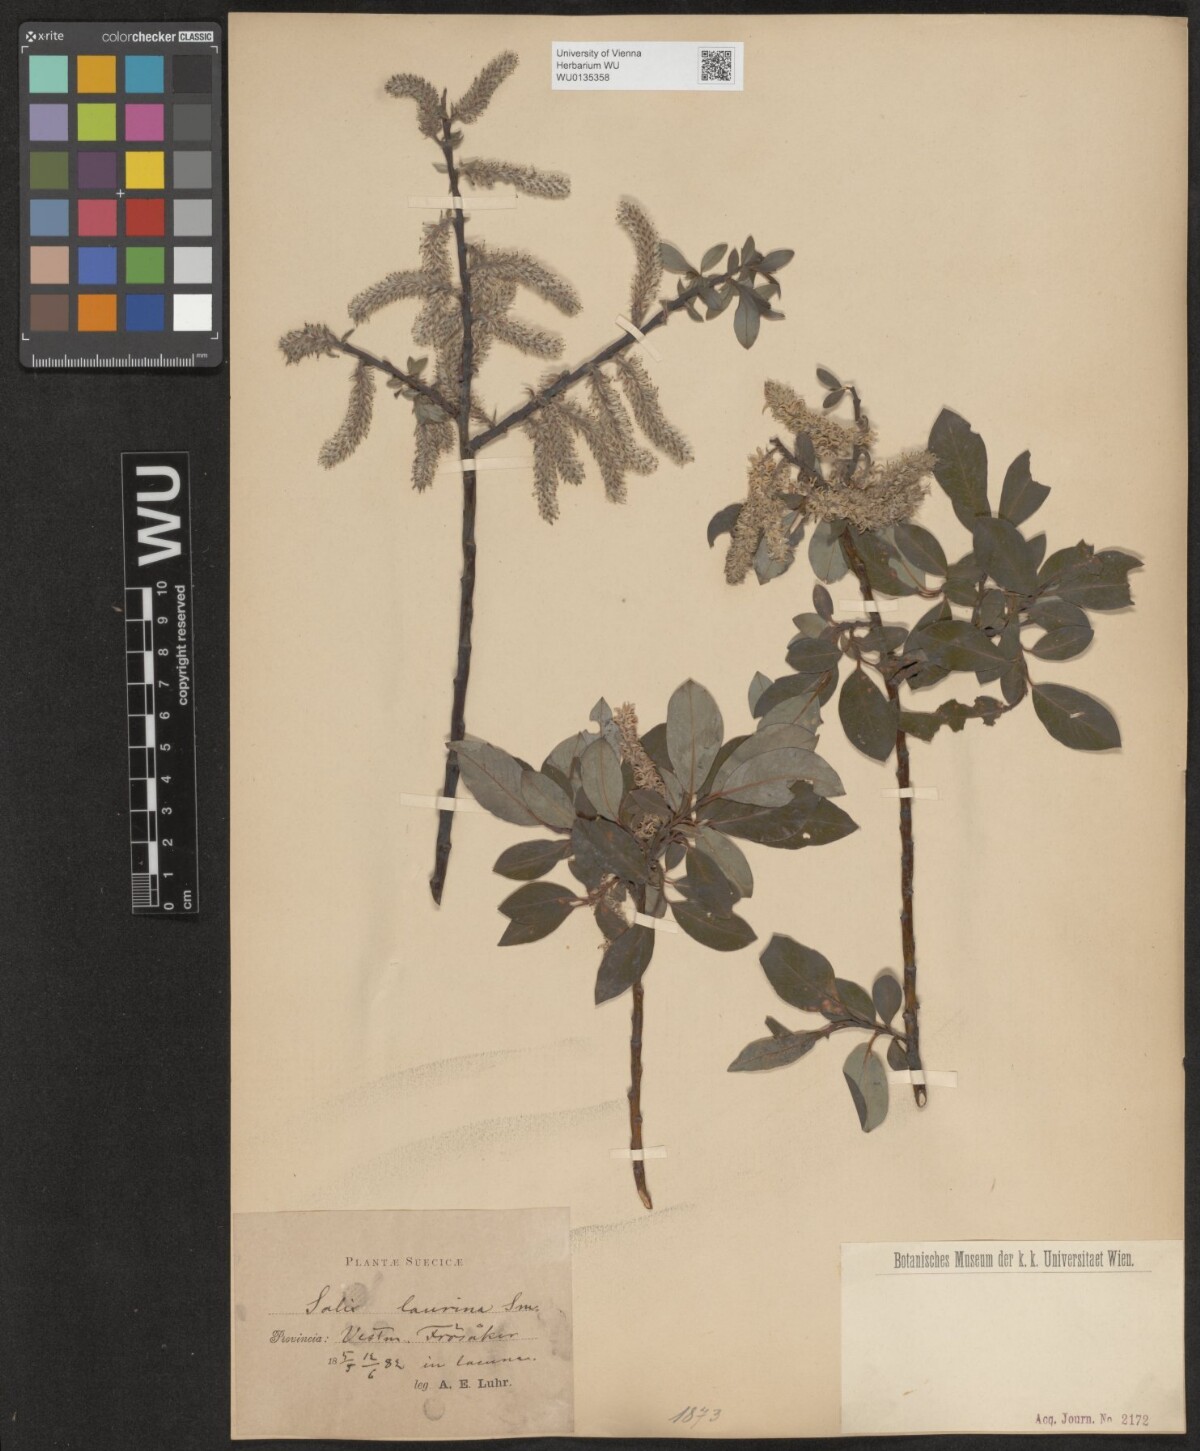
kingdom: Plantae
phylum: Tracheophyta
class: Magnoliopsida
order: Malpighiales
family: Salicaceae
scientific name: Salicaceae
